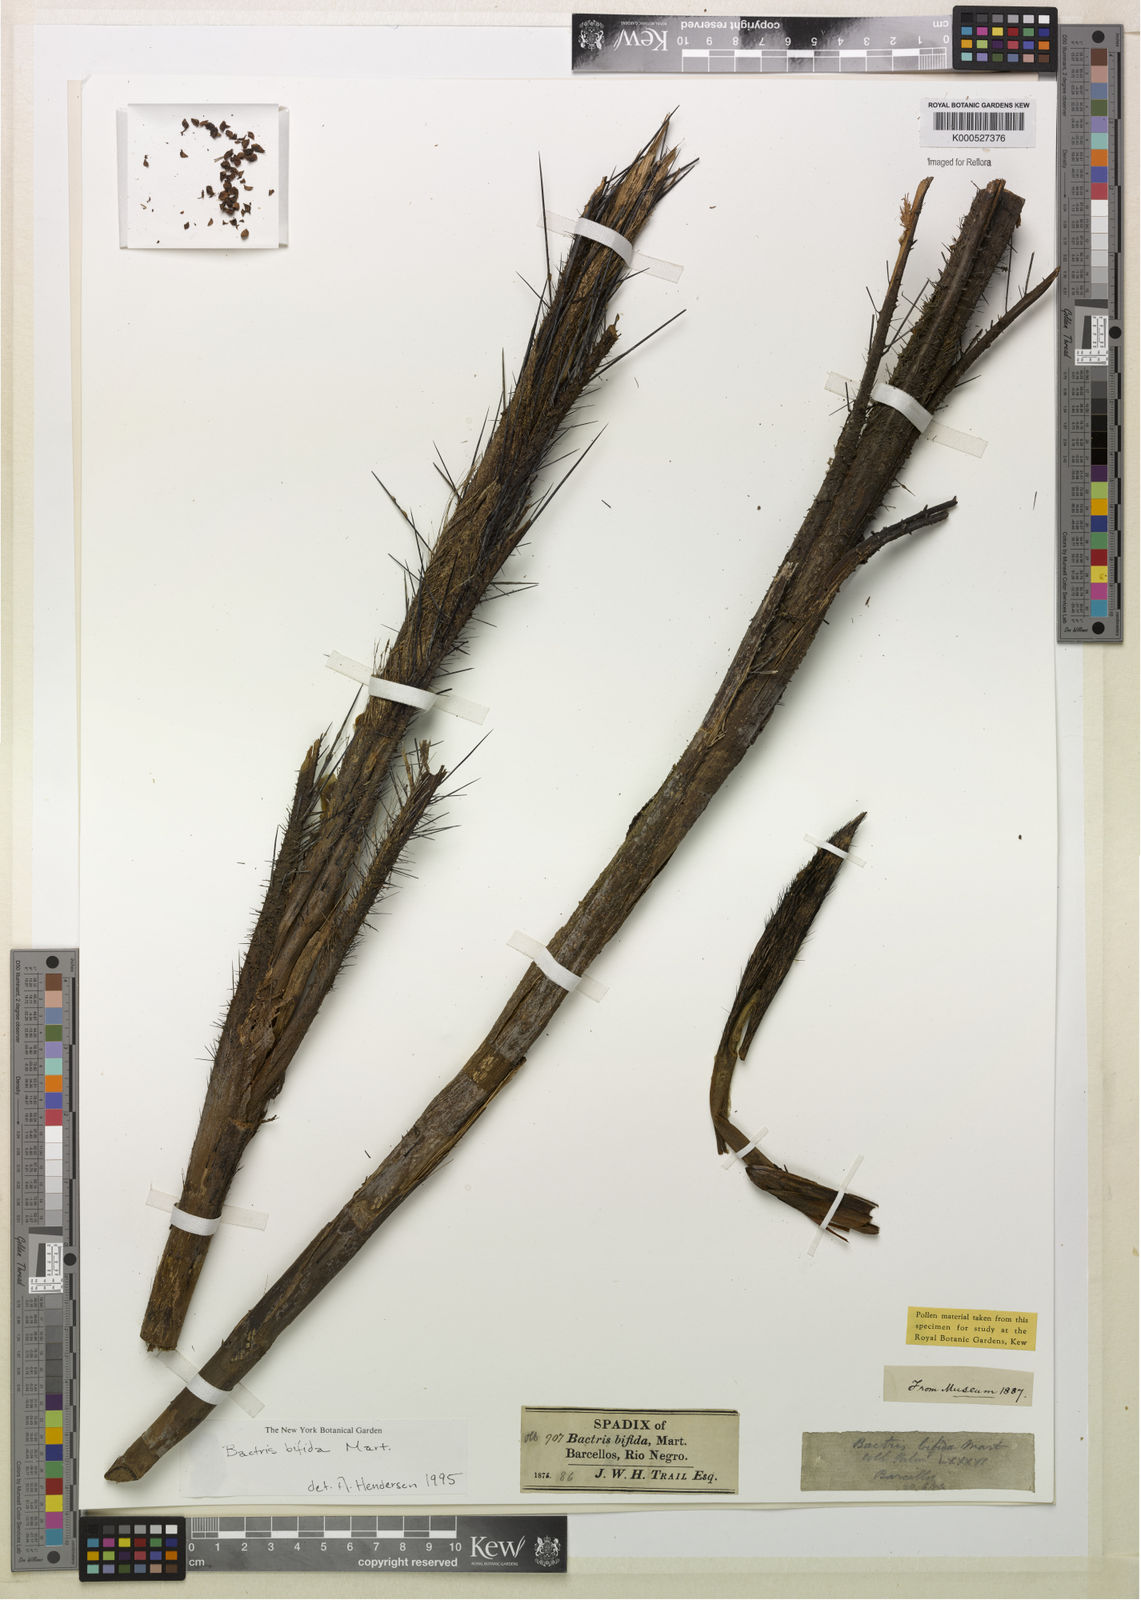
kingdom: Plantae
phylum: Tracheophyta
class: Liliopsida
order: Arecales
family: Arecaceae
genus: Bactris
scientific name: Bactris bifida
